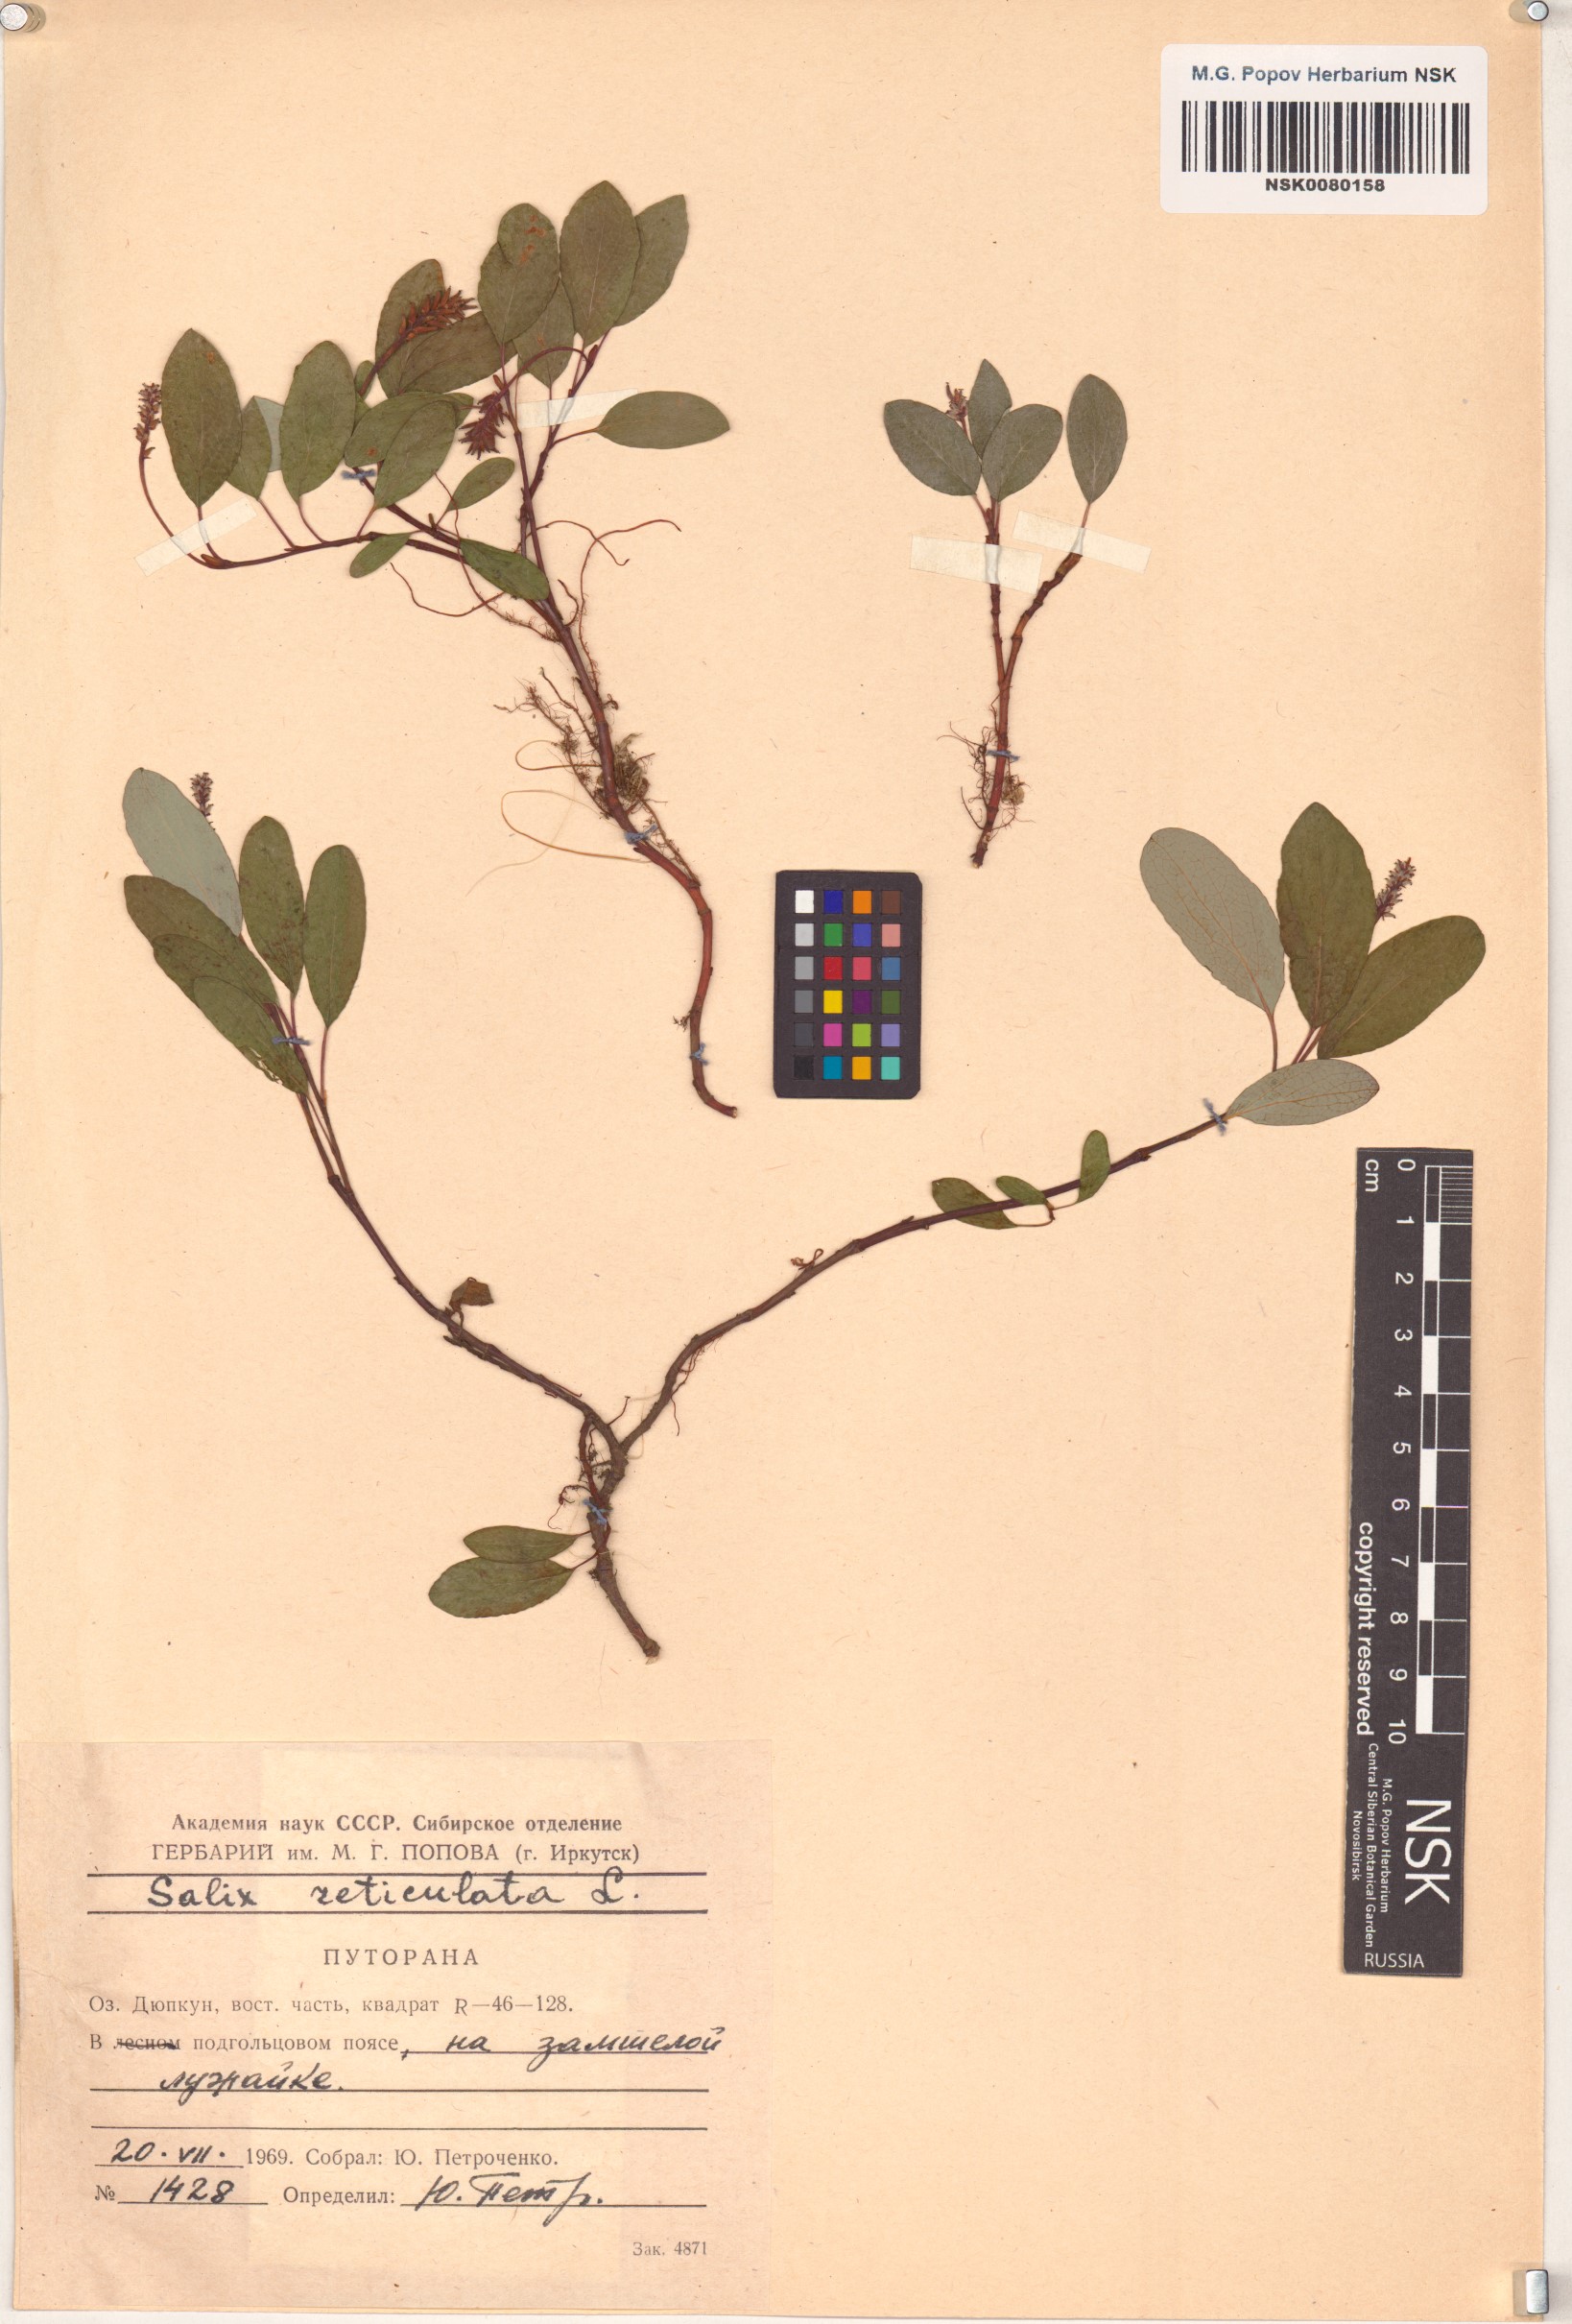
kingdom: Plantae
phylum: Tracheophyta
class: Magnoliopsida
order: Malpighiales
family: Salicaceae
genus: Salix
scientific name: Salix reticulata
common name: Net-leaved willow
